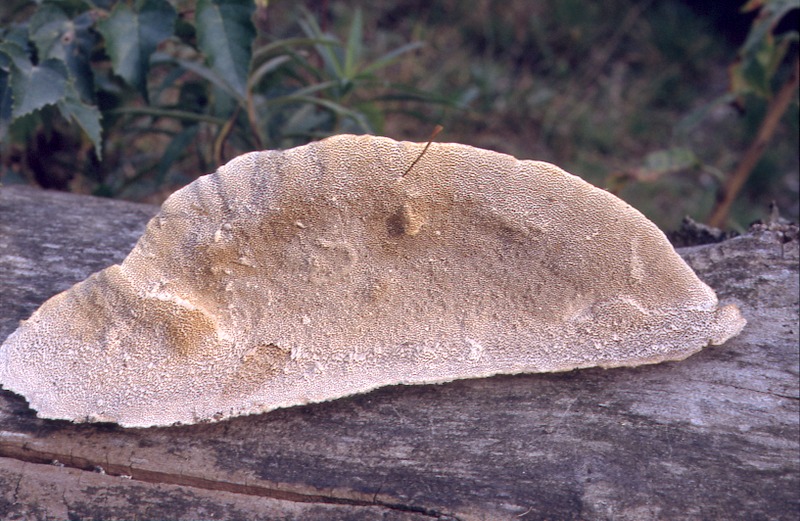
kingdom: Plantae
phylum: Tracheophyta
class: Magnoliopsida
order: Malpighiales
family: Salicaceae
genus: Populus
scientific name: Populus
